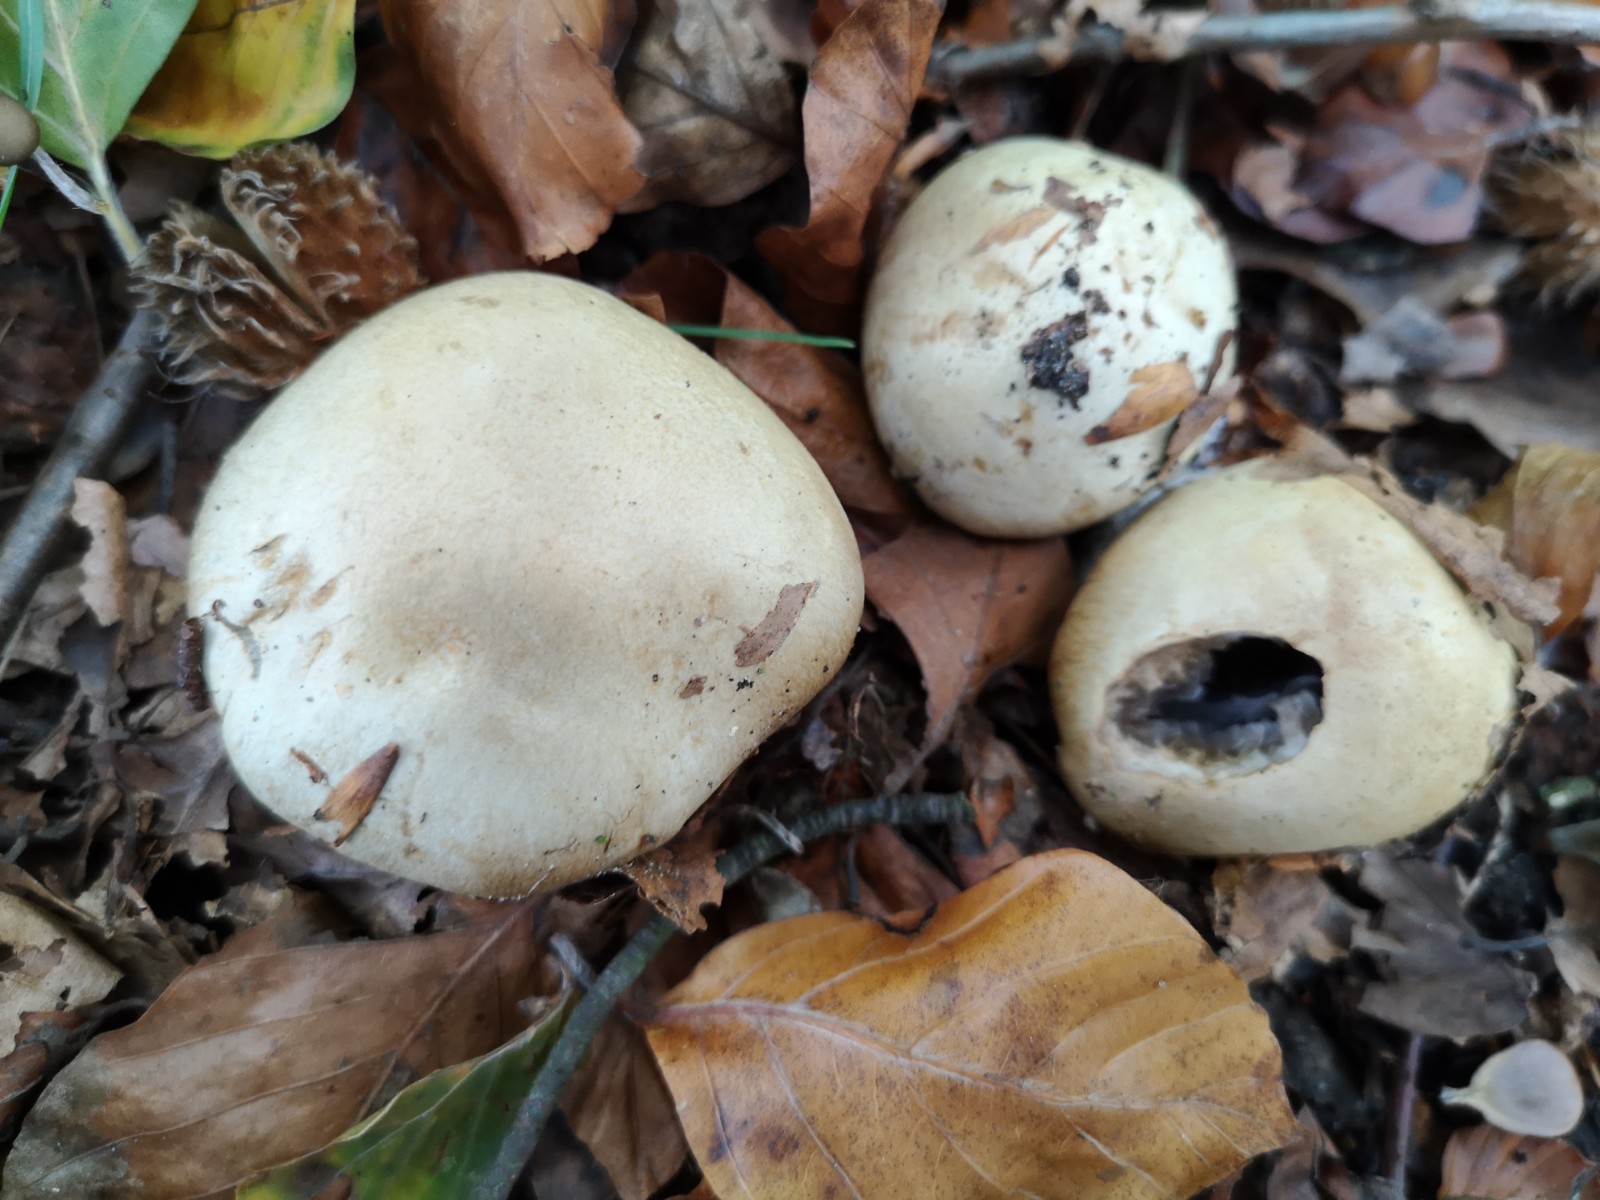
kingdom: Fungi
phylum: Basidiomycota
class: Agaricomycetes
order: Agaricales
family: Cortinariaceae
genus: Cortinarius
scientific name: Cortinarius anserinus
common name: bøge-slørhat
